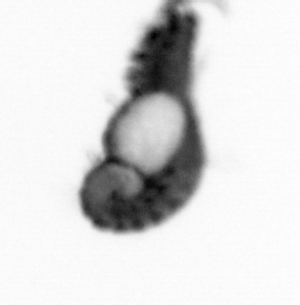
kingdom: Animalia
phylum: Annelida
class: Polychaeta
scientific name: Polychaeta
